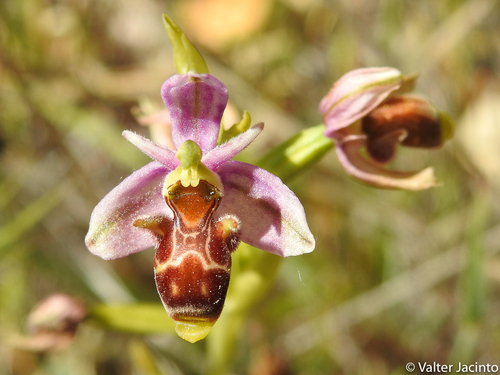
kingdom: Plantae
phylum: Tracheophyta
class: Liliopsida
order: Asparagales
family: Orchidaceae
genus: Ophrys
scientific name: Ophrys scolopax
